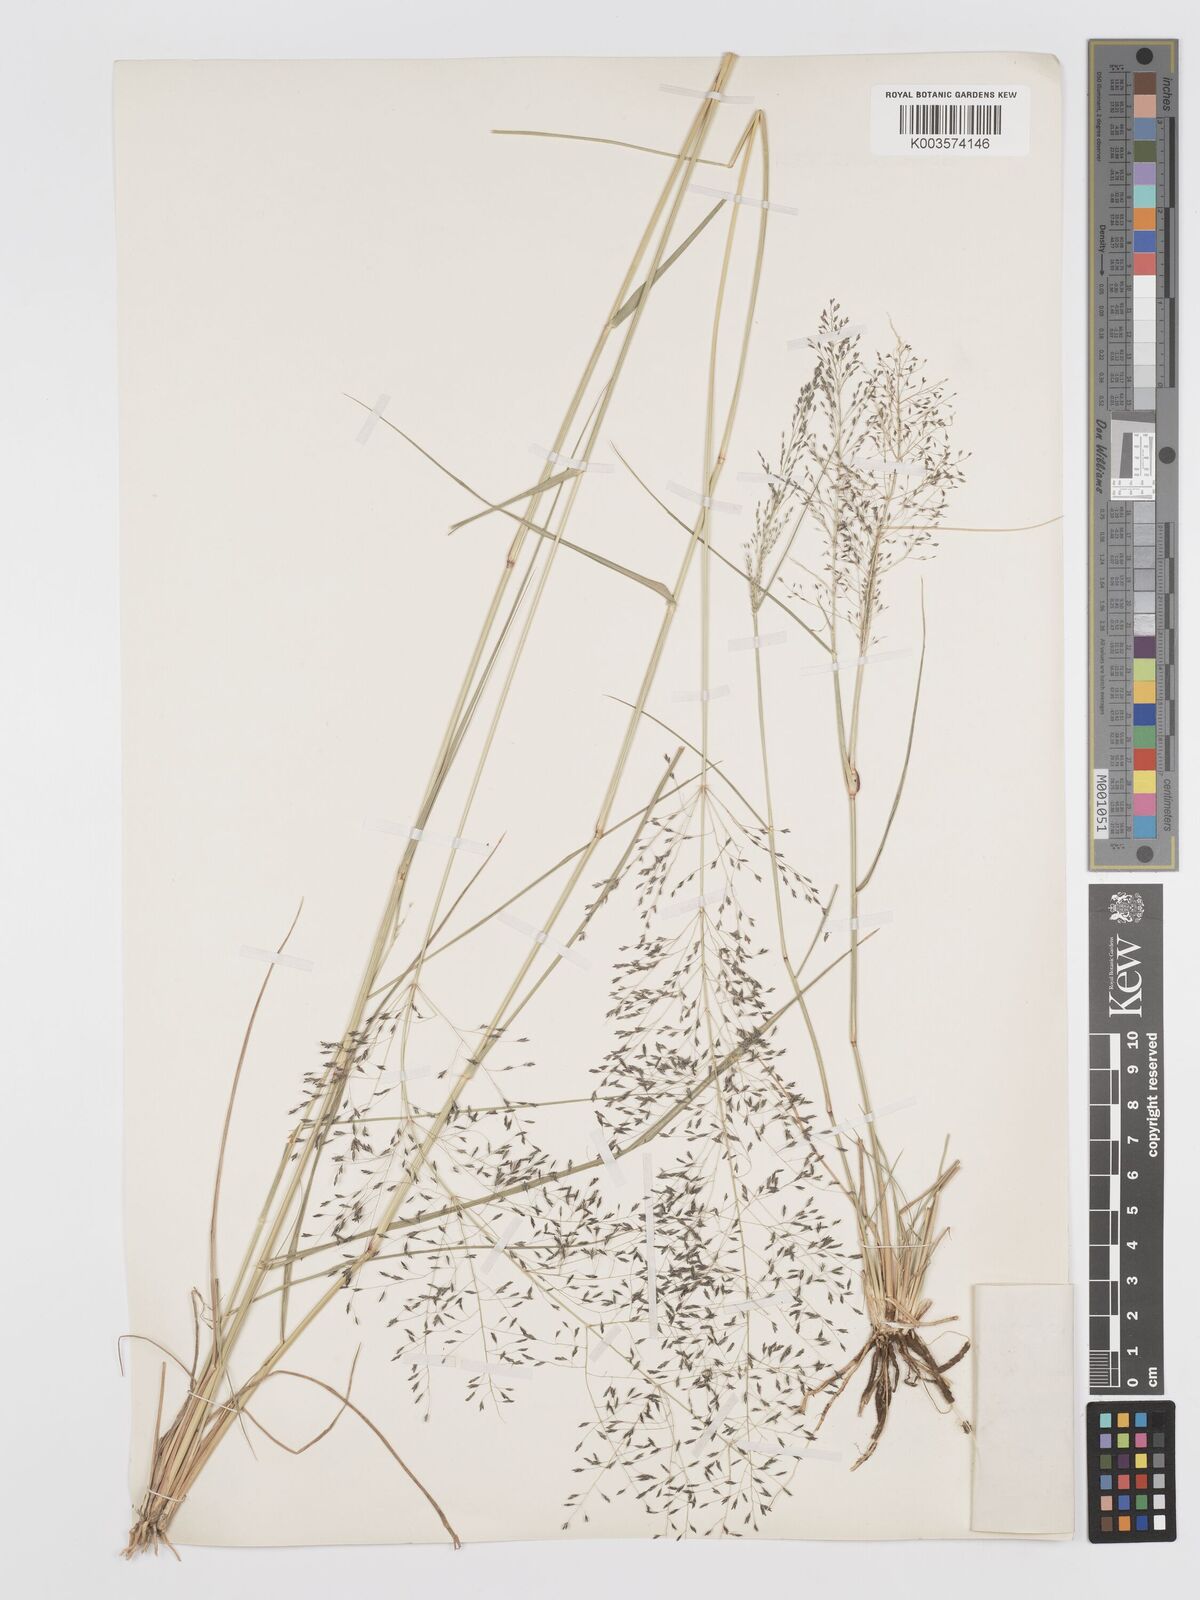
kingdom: Plantae
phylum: Tracheophyta
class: Liliopsida
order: Poales
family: Poaceae
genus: Eragrostis
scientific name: Eragrostis cylindriflora
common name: Cylinderflower lovegrass
